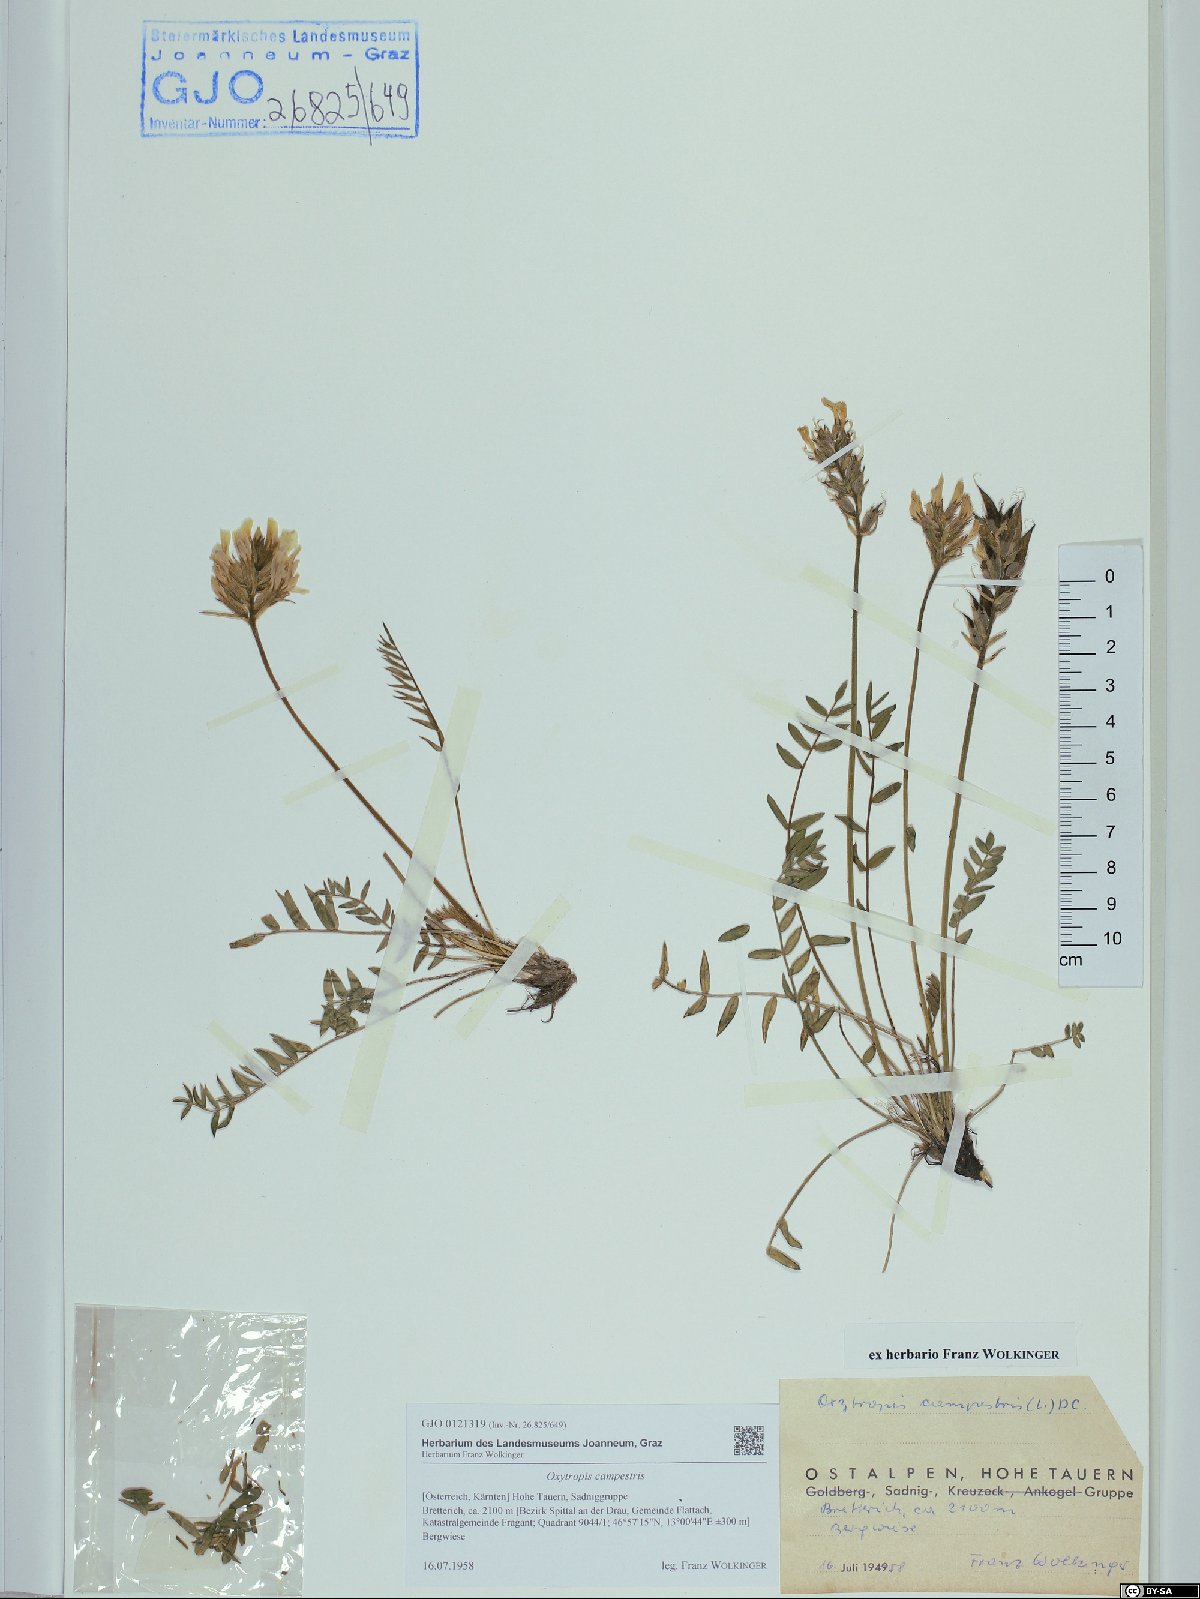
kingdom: Plantae
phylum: Tracheophyta
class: Magnoliopsida
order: Fabales
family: Fabaceae
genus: Oxytropis
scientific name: Oxytropis campestris
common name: Field locoweed
